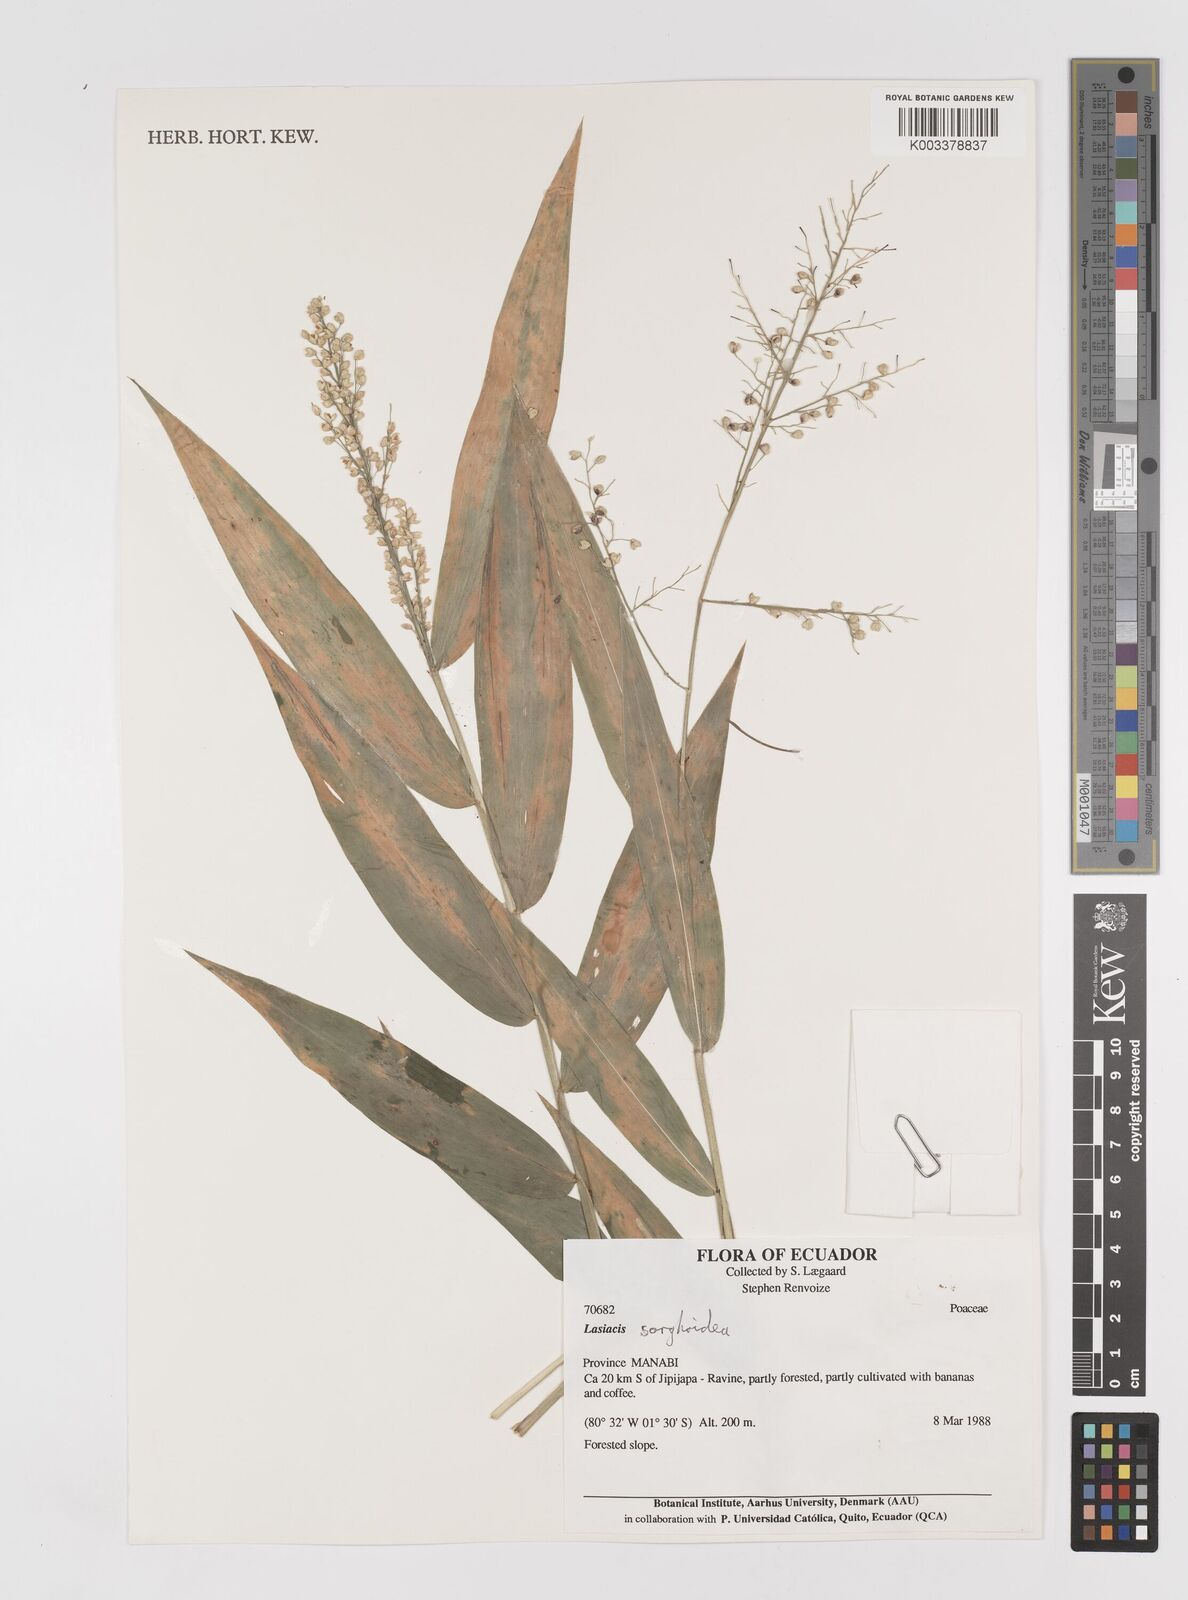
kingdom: Plantae
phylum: Tracheophyta
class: Liliopsida
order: Poales
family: Poaceae
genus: Lasiacis
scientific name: Lasiacis maculata
